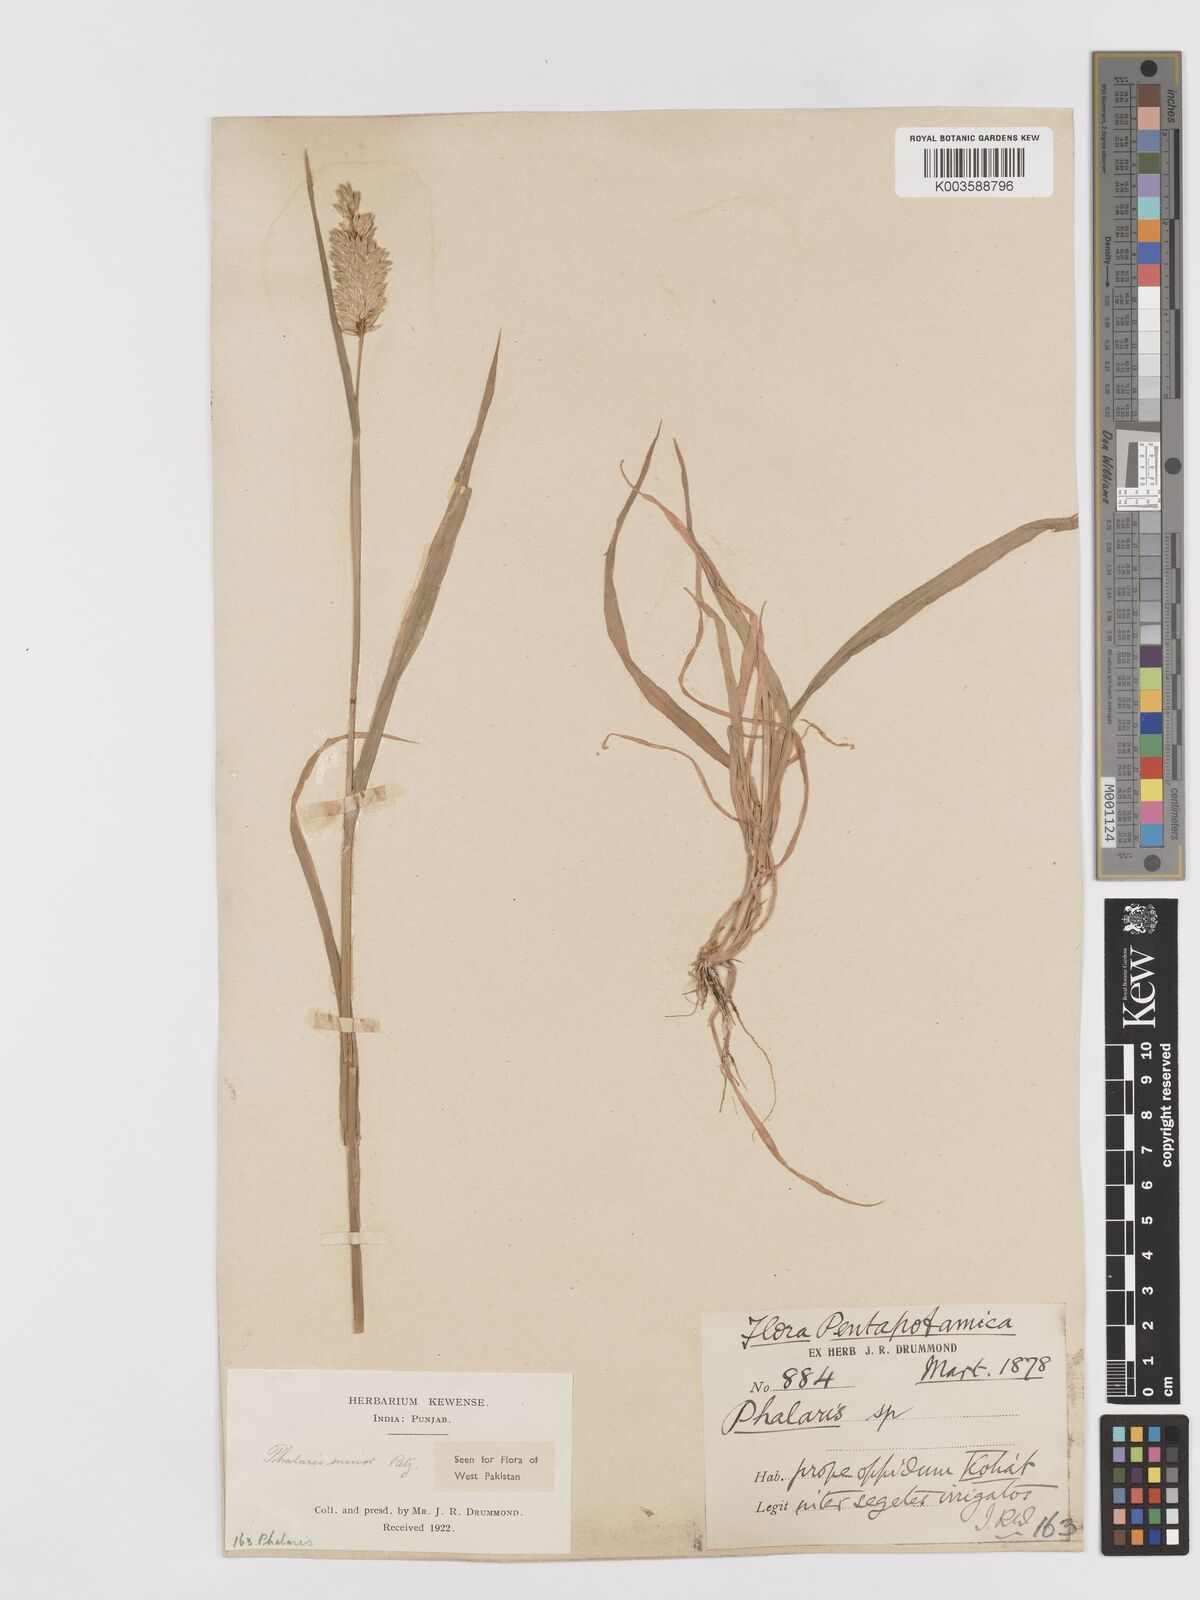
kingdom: Plantae
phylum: Tracheophyta
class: Liliopsida
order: Poales
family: Poaceae
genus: Phalaris
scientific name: Phalaris minor
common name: Littleseed canarygrass
